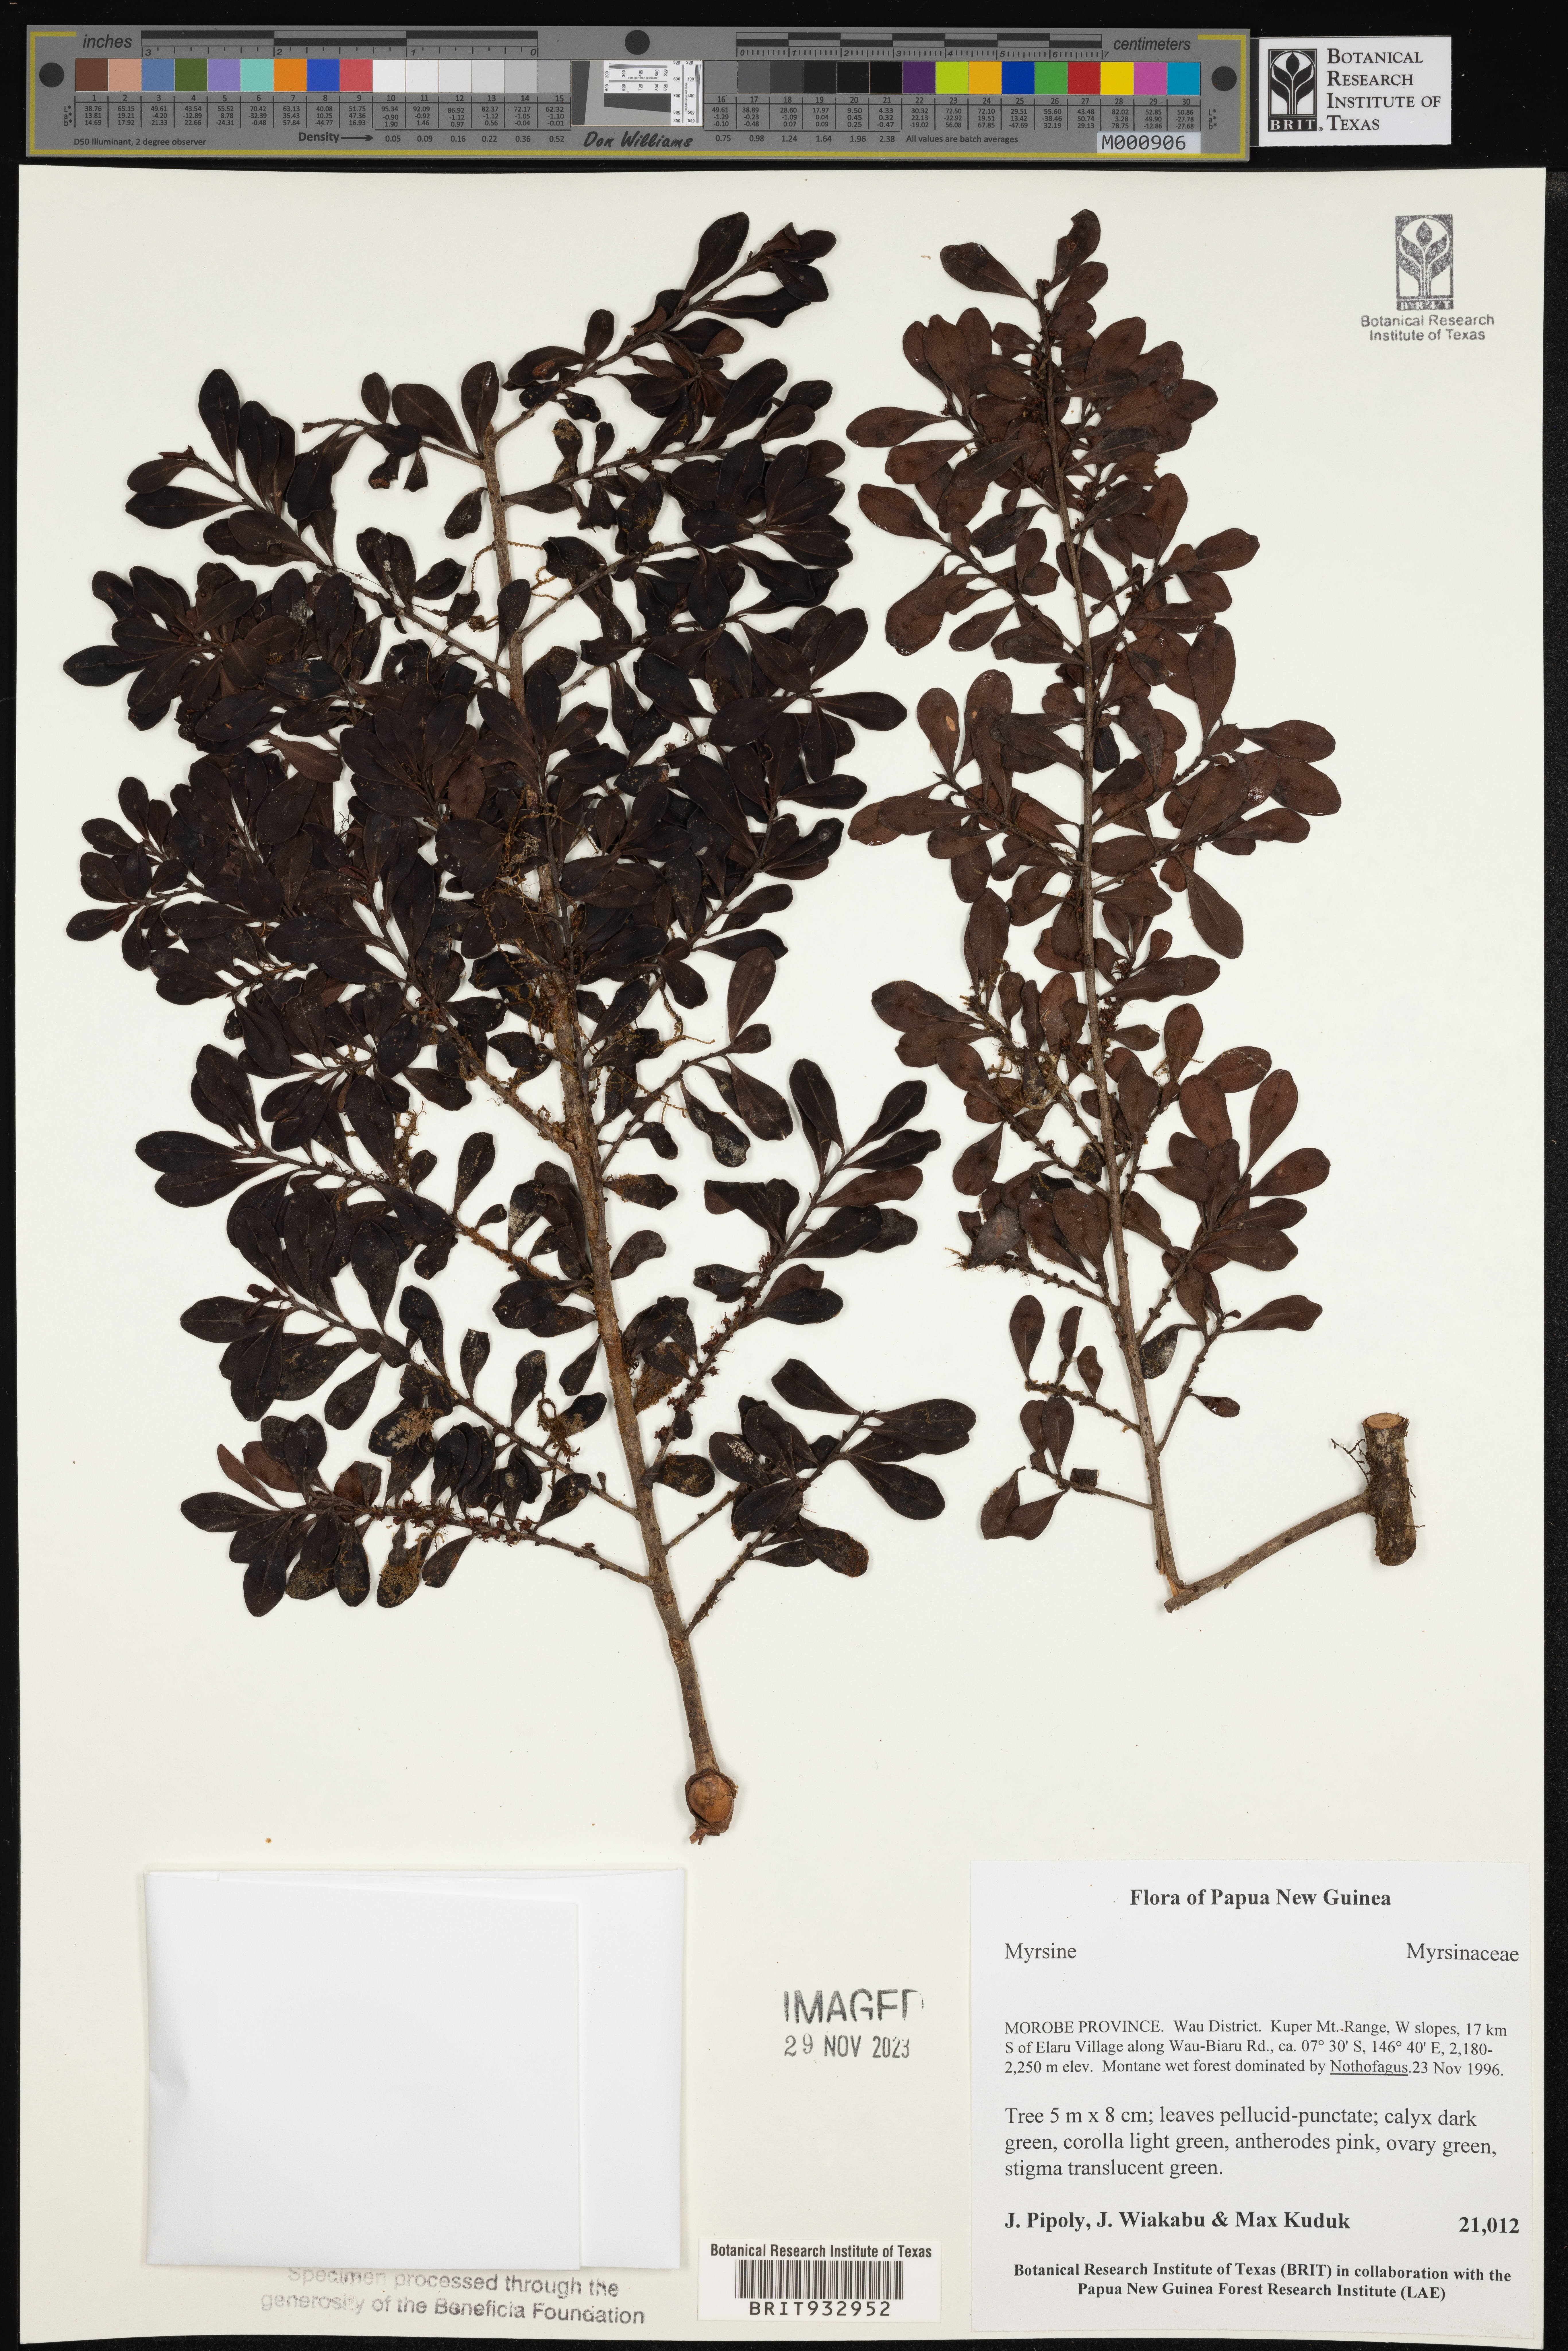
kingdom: Plantae
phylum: Tracheophyta
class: Magnoliopsida
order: Ericales
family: Primulaceae
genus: Myrsine
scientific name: Myrsine
